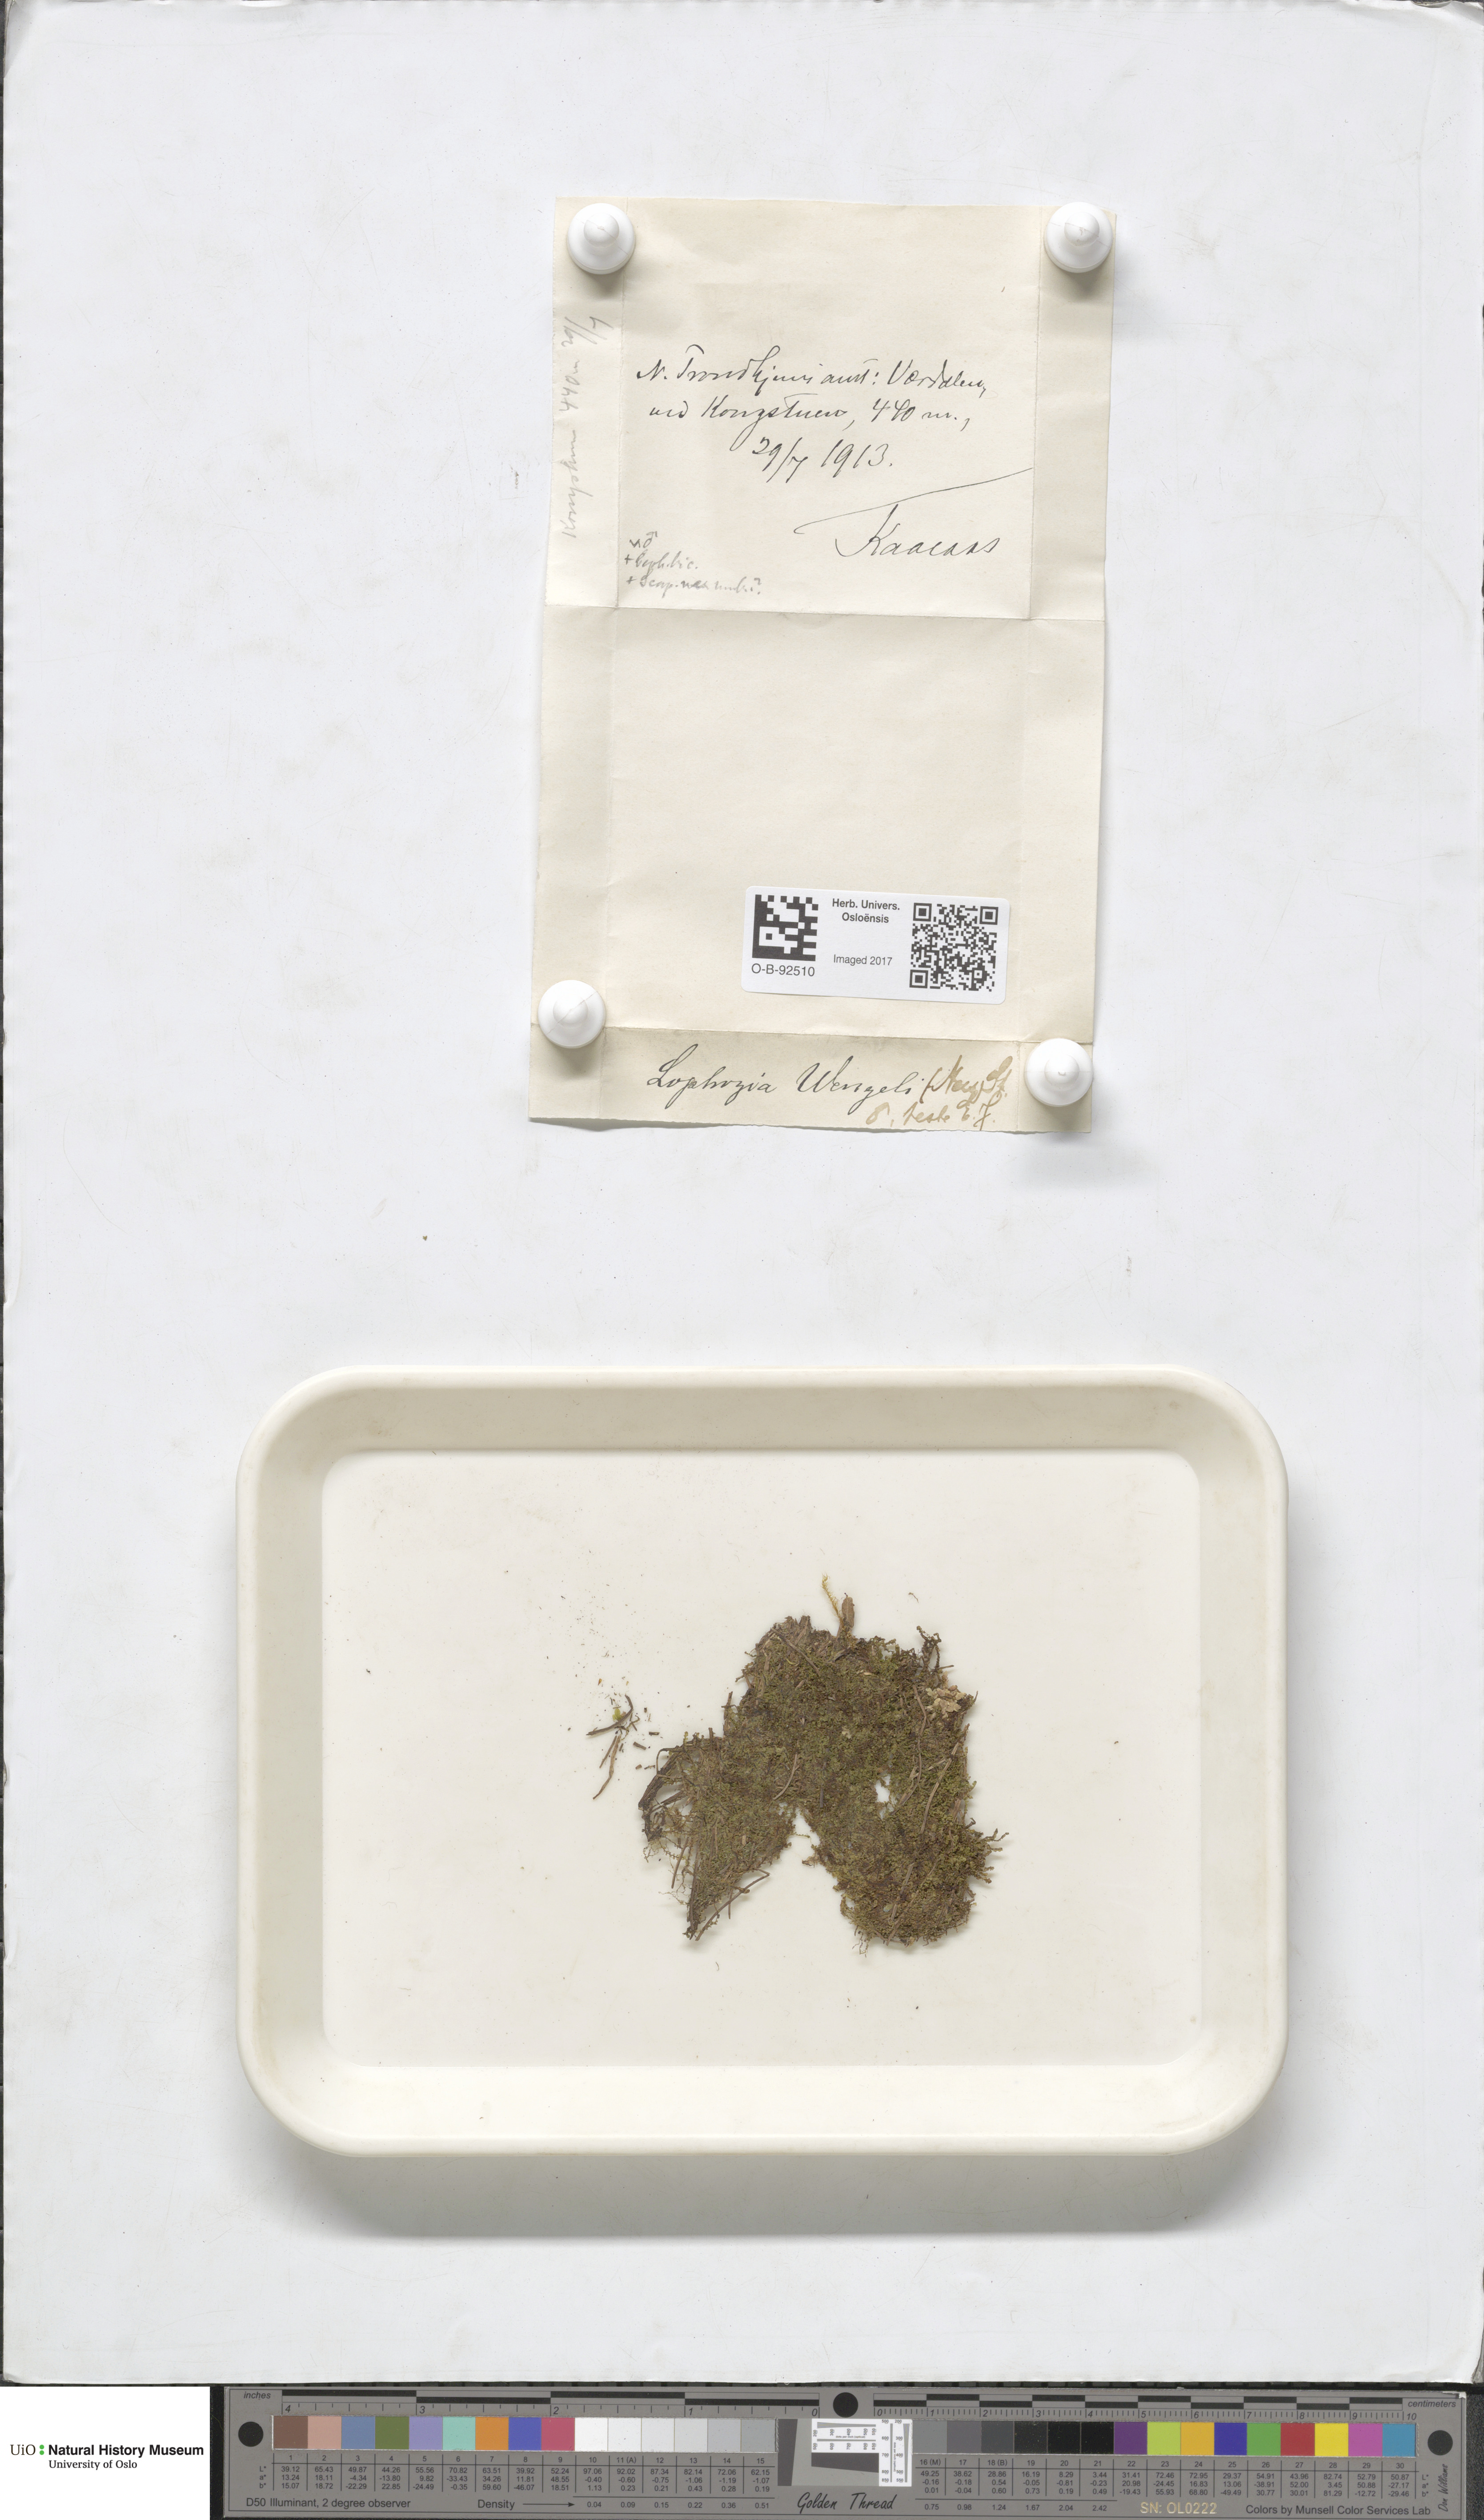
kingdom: Plantae
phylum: Marchantiophyta
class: Jungermanniopsida
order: Jungermanniales
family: Lophoziaceae
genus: Lophozia
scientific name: Lophozia wenzelii
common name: Wenzel s notchwort
